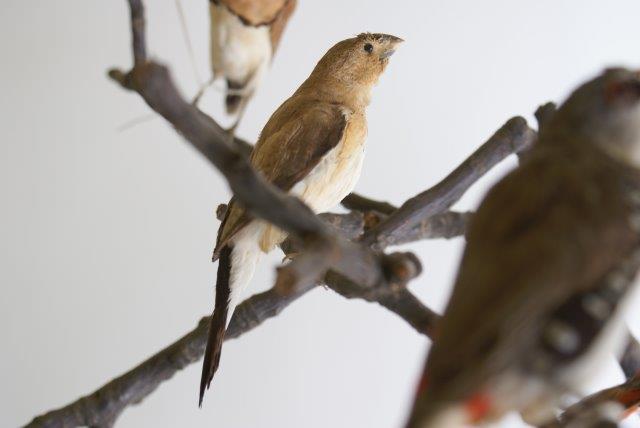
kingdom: Animalia
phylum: Chordata
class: Aves
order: Passeriformes
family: Estrildidae
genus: Euodice
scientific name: Euodice malabarica
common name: Loodbekje
